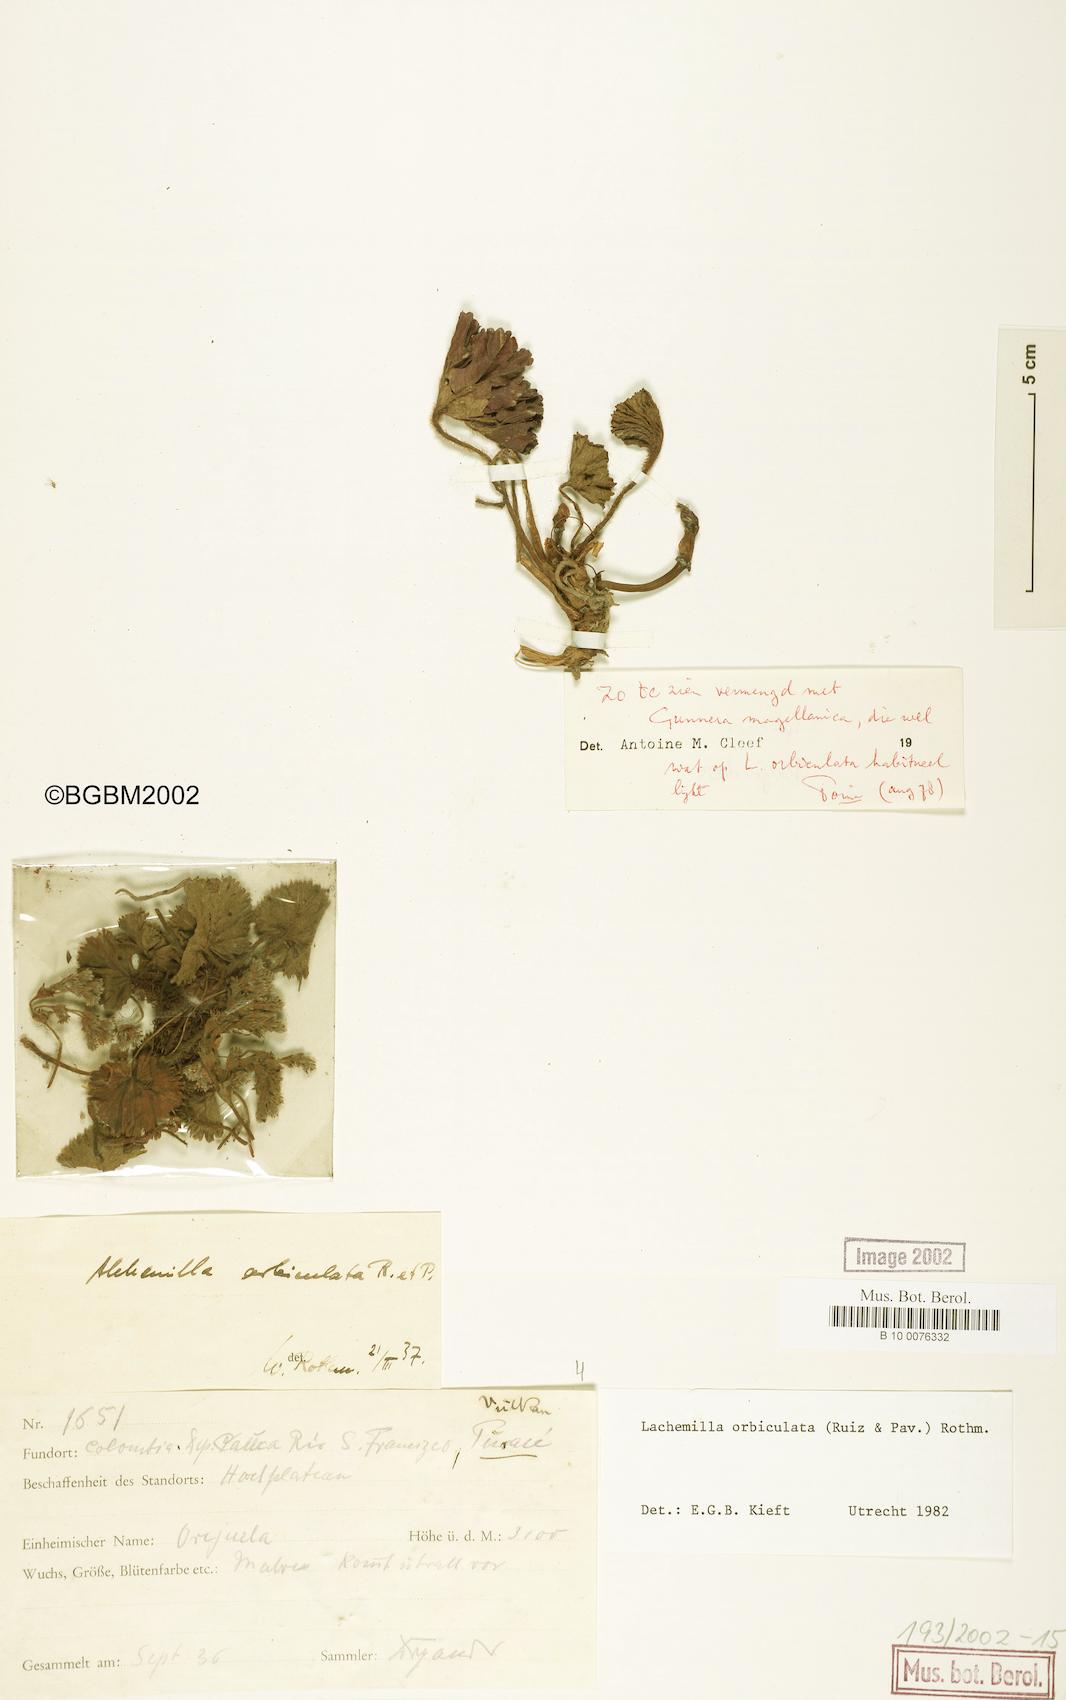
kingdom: Plantae
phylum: Tracheophyta
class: Magnoliopsida
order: Rosales
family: Rosaceae
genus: Lachemilla
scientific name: Lachemilla orbiculata
